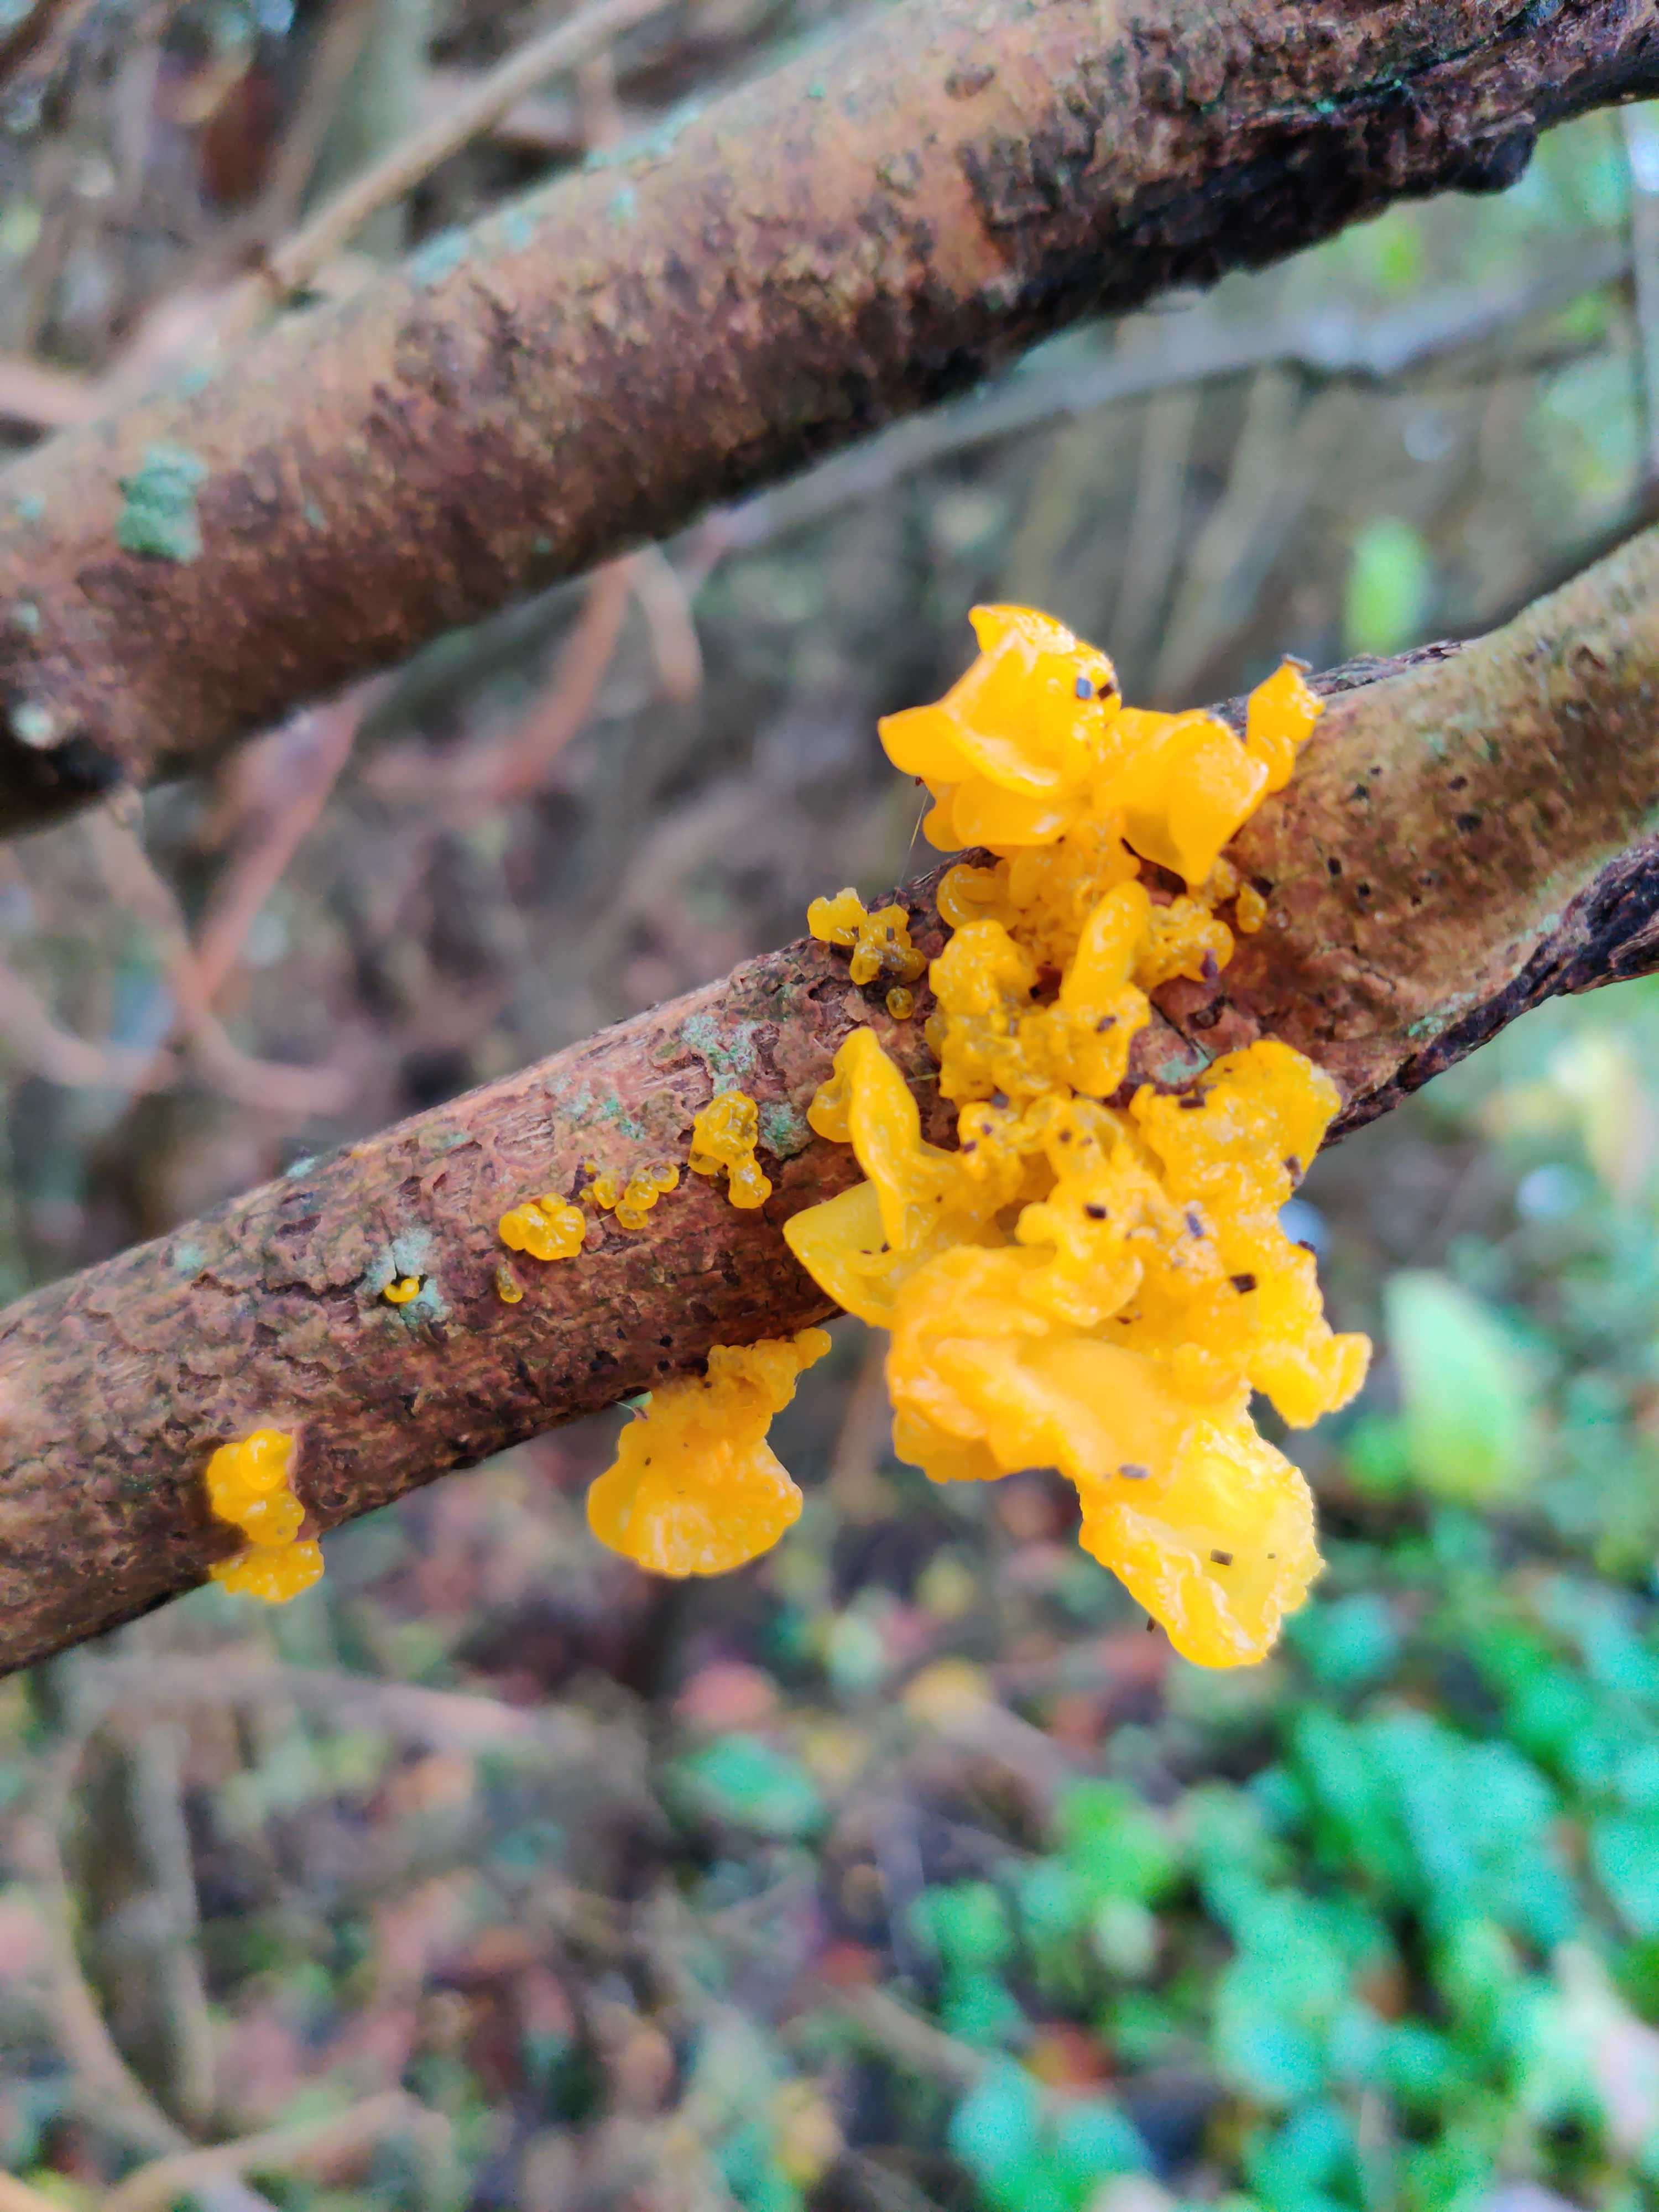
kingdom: Fungi
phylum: Basidiomycota
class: Tremellomycetes
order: Tremellales
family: Tremellaceae
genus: Tremella
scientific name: Tremella mesenterica
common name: gul bævresvamp
